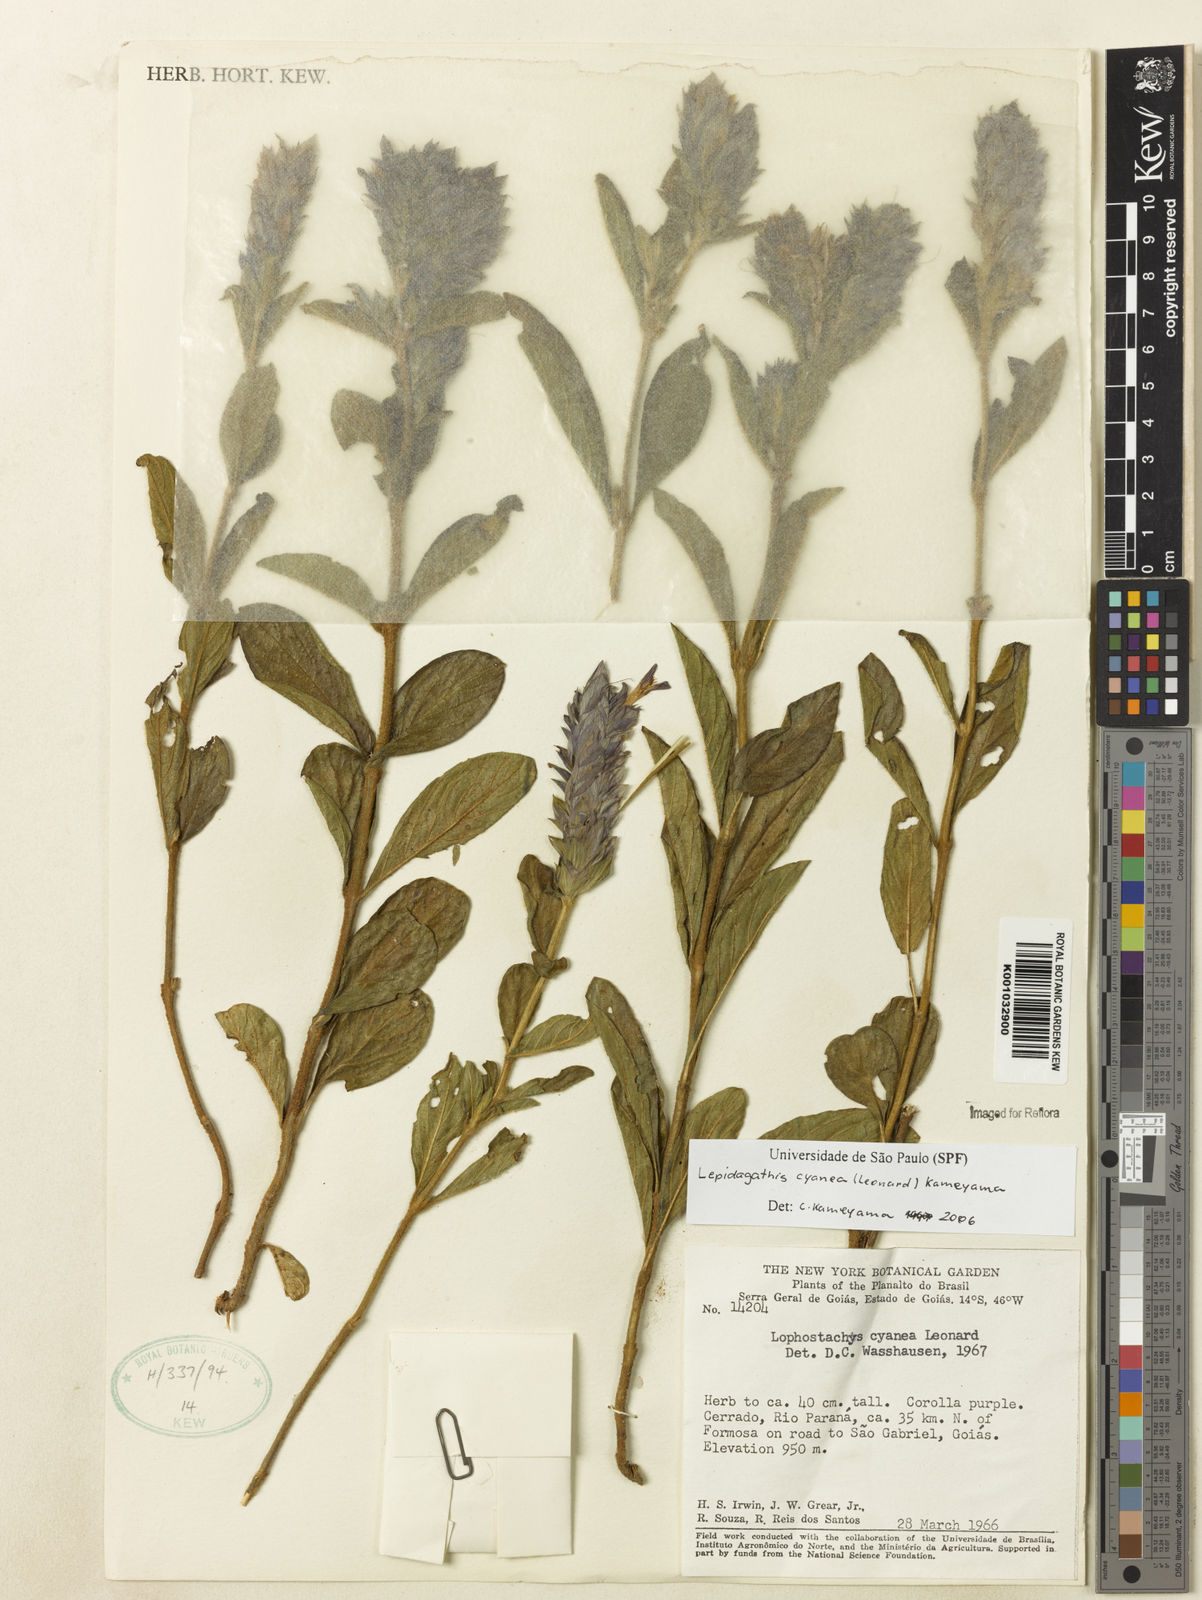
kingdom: Plantae
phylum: Tracheophyta
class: Magnoliopsida
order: Lamiales
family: Acanthaceae
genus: Lepidagathis
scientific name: Lepidagathis cyanea
